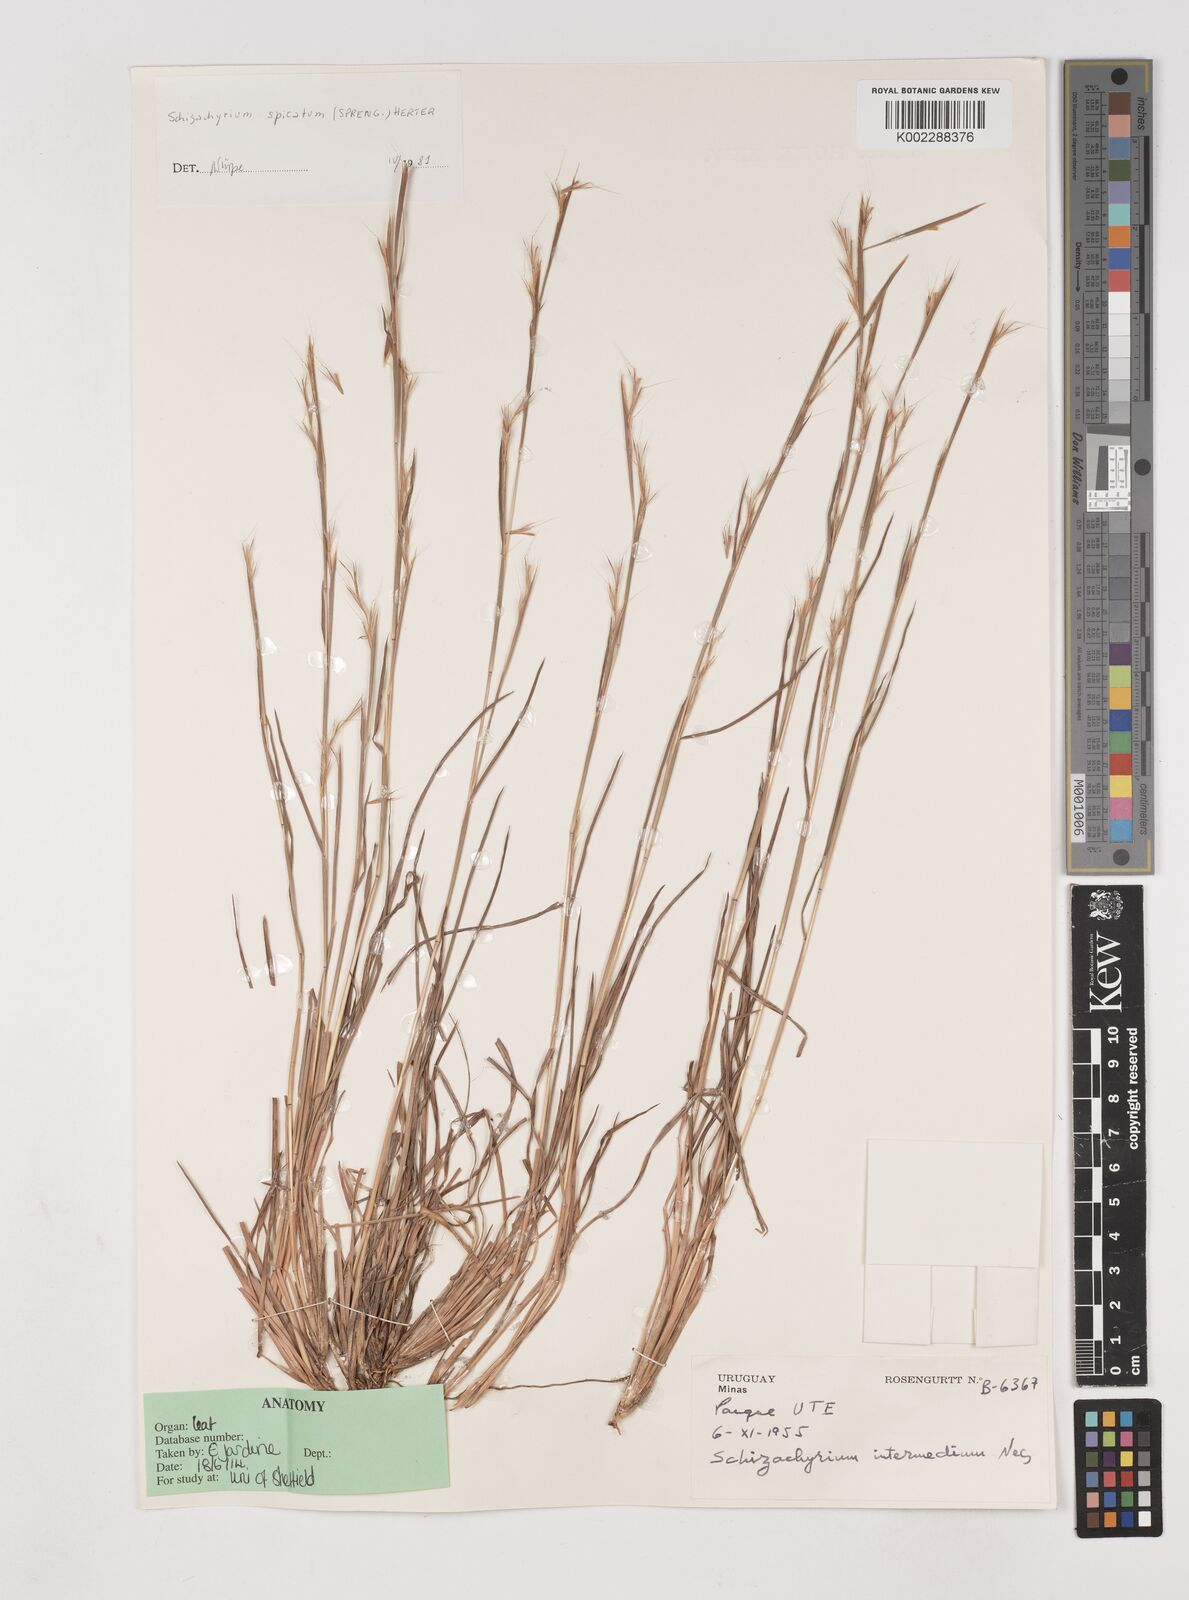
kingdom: Plantae
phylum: Tracheophyta
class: Liliopsida
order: Poales
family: Poaceae
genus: Schizachyrium
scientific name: Schizachyrium spicatum
